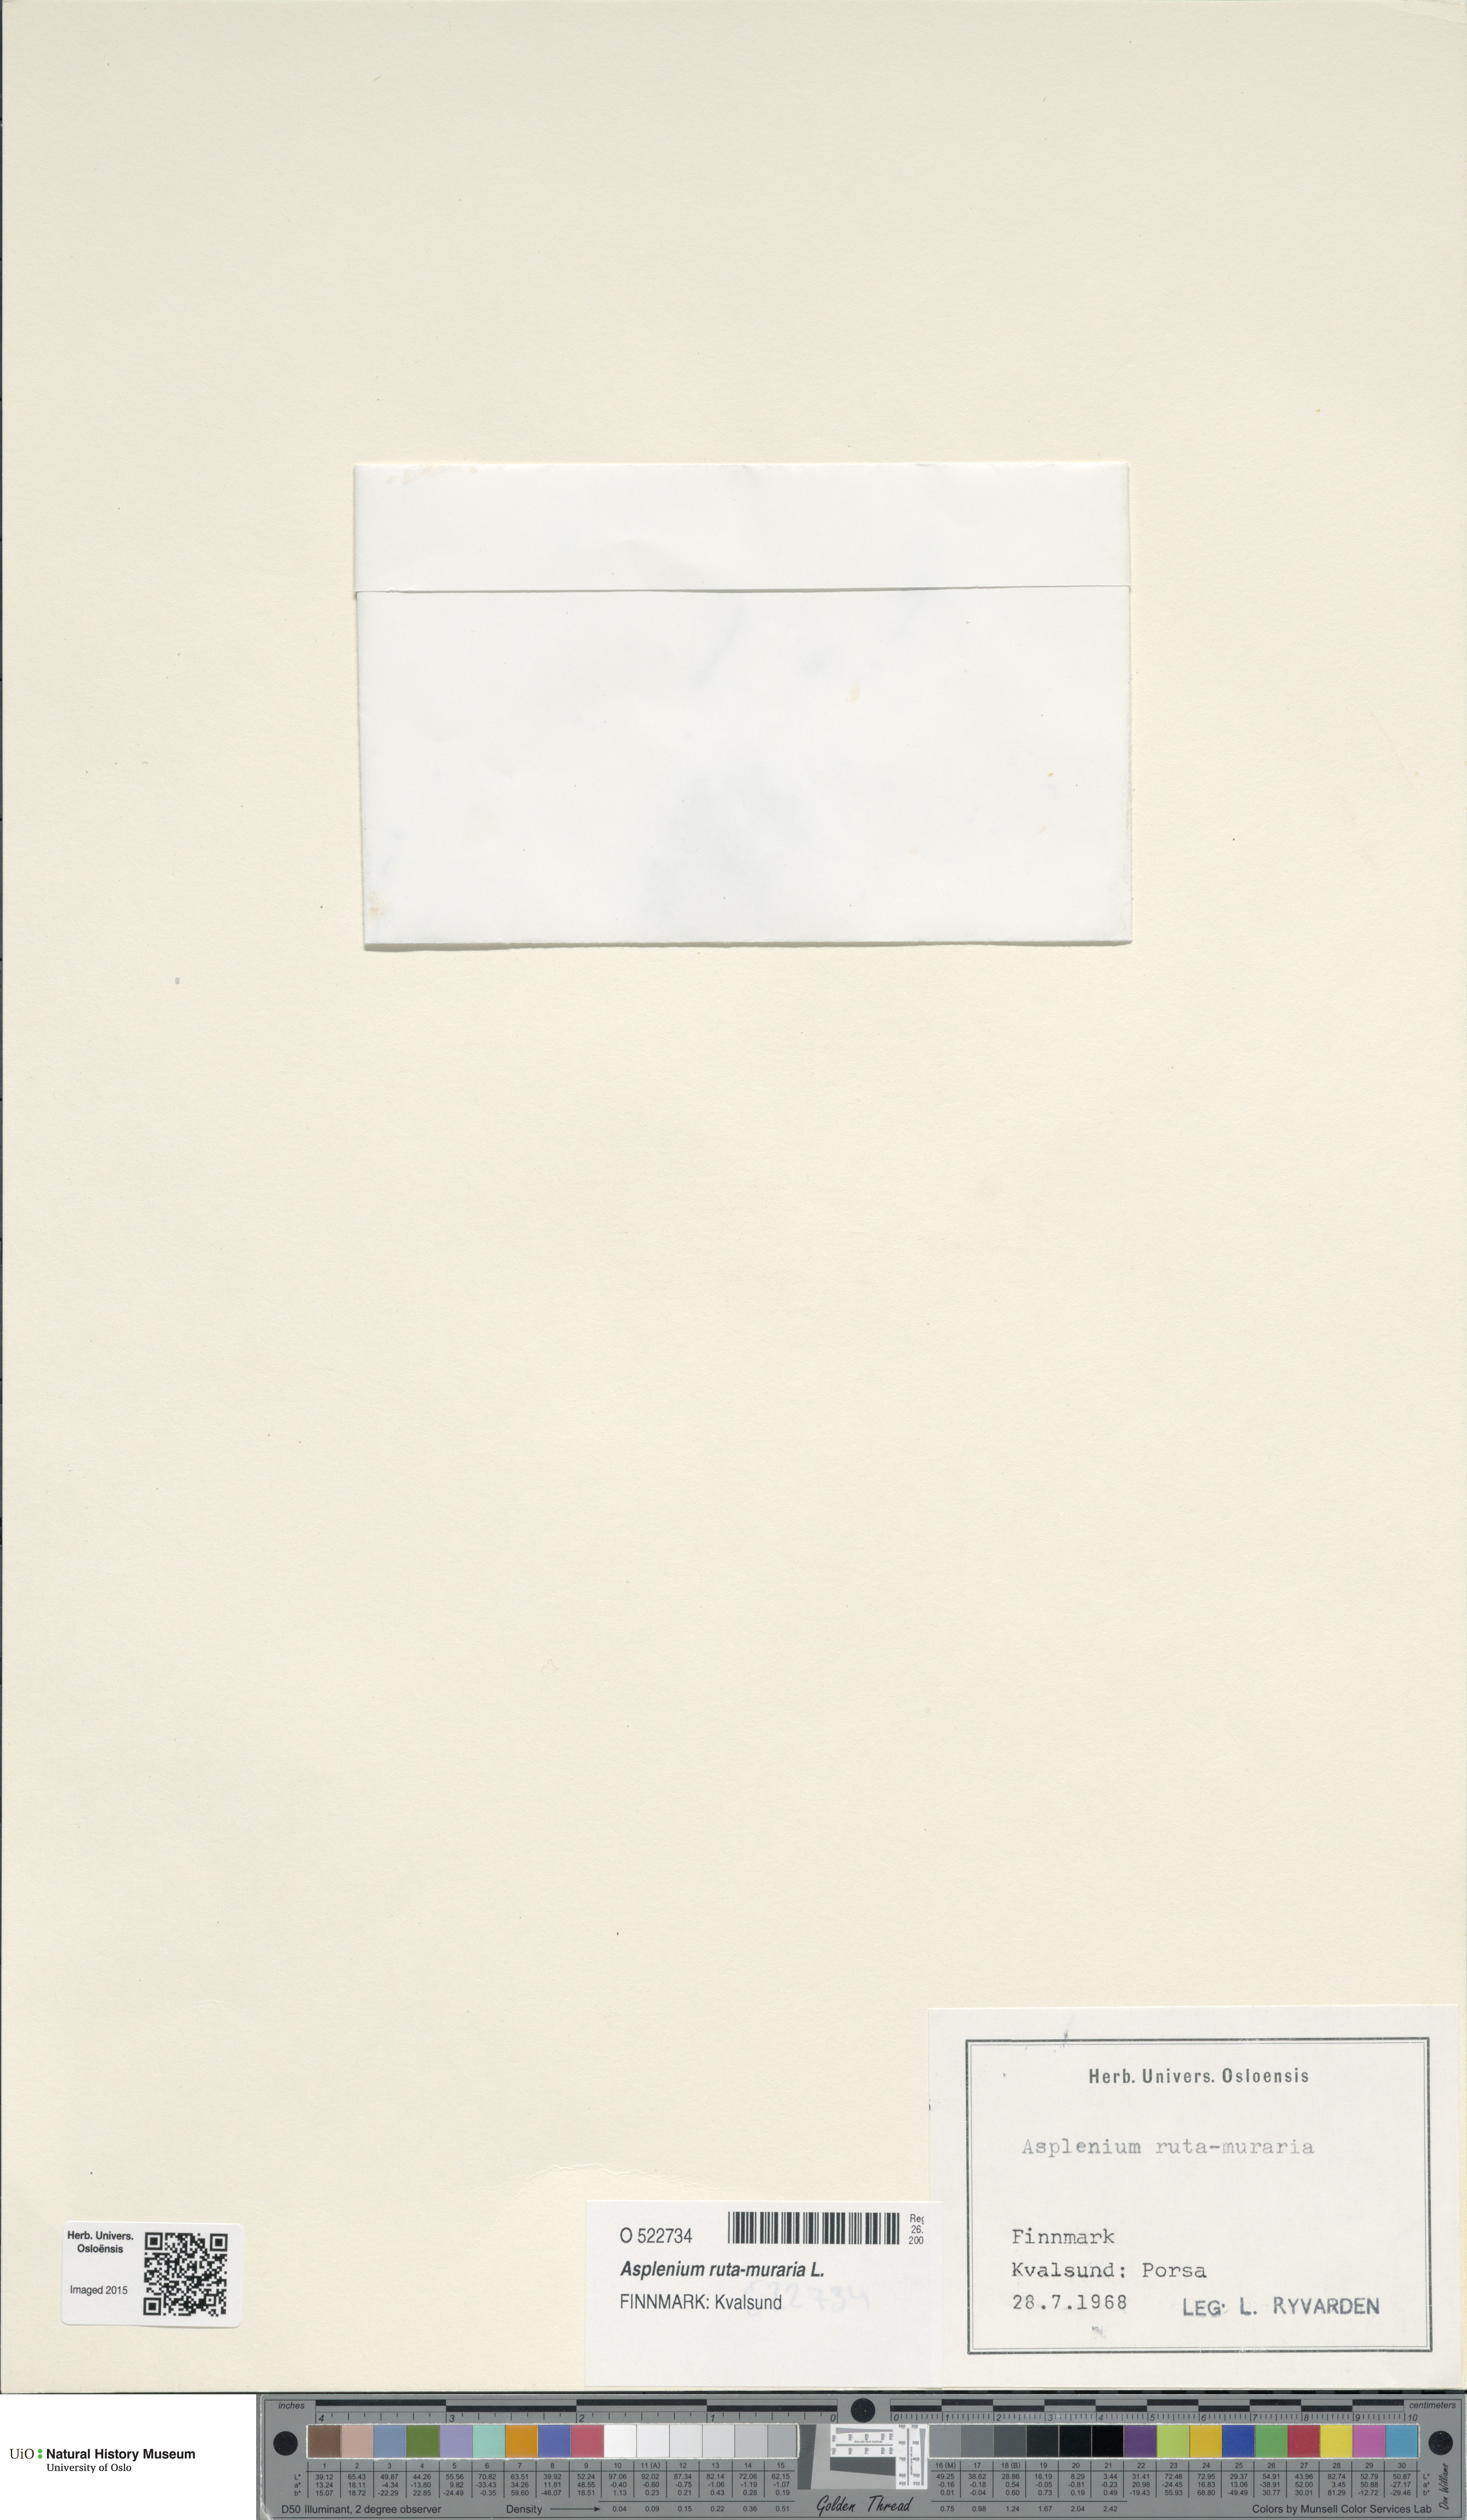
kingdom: Plantae
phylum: Tracheophyta
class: Polypodiopsida
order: Polypodiales
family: Aspleniaceae
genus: Asplenium
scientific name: Asplenium ruta-muraria
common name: Wall-rue
